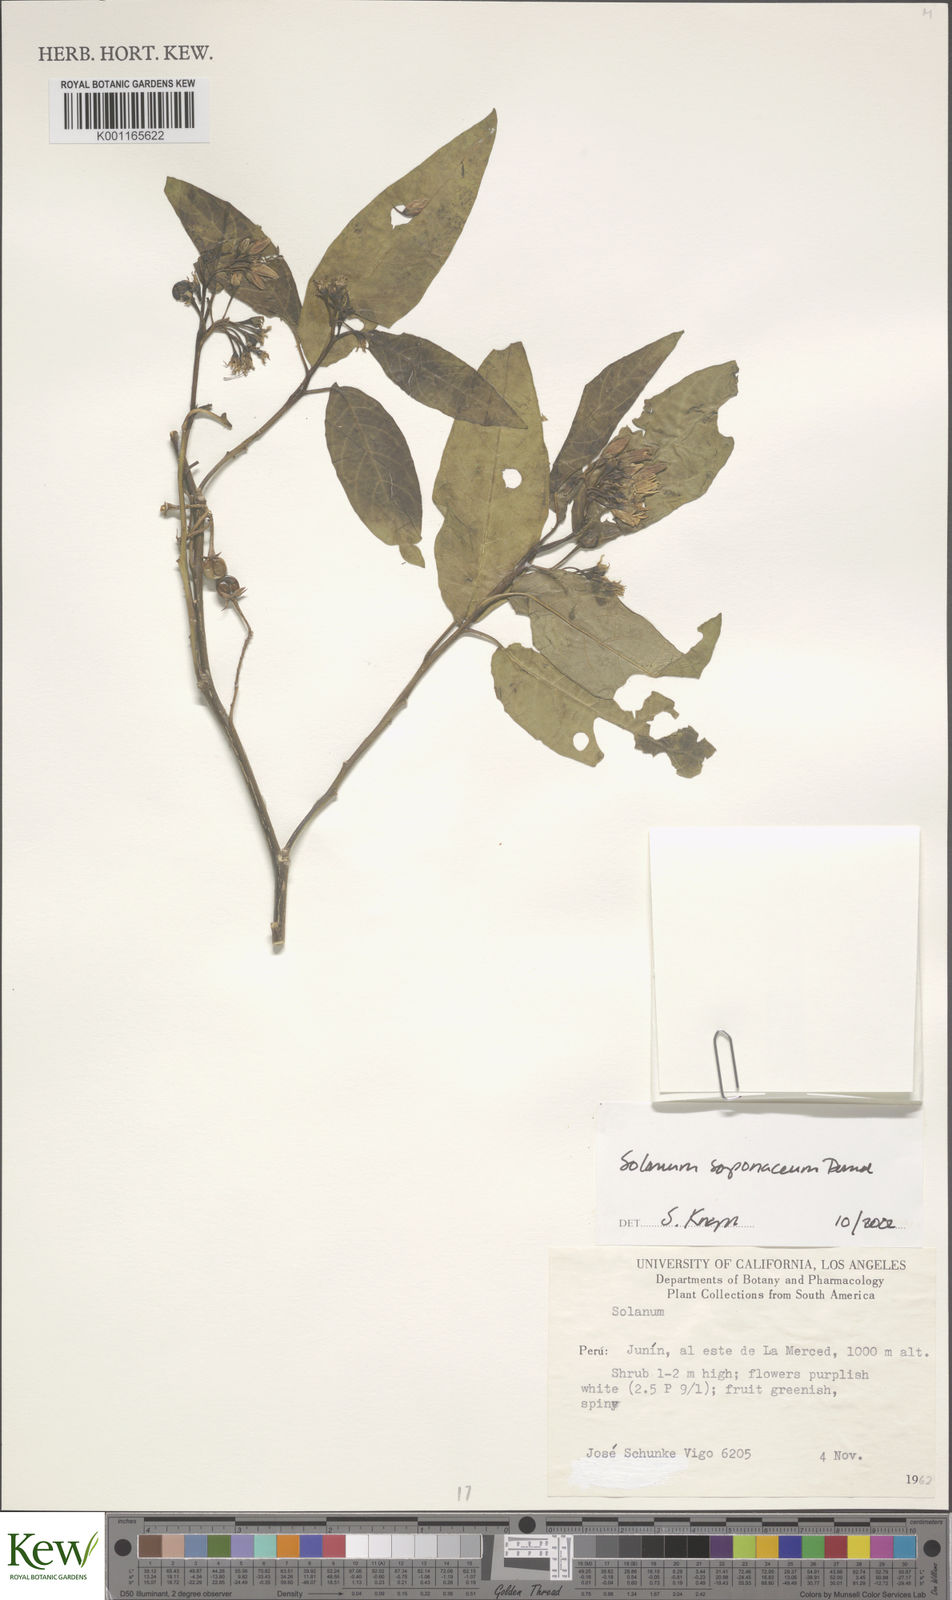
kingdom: Plantae
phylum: Tracheophyta
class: Magnoliopsida
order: Solanales
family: Solanaceae
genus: Solanum
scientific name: Solanum saponaceum
